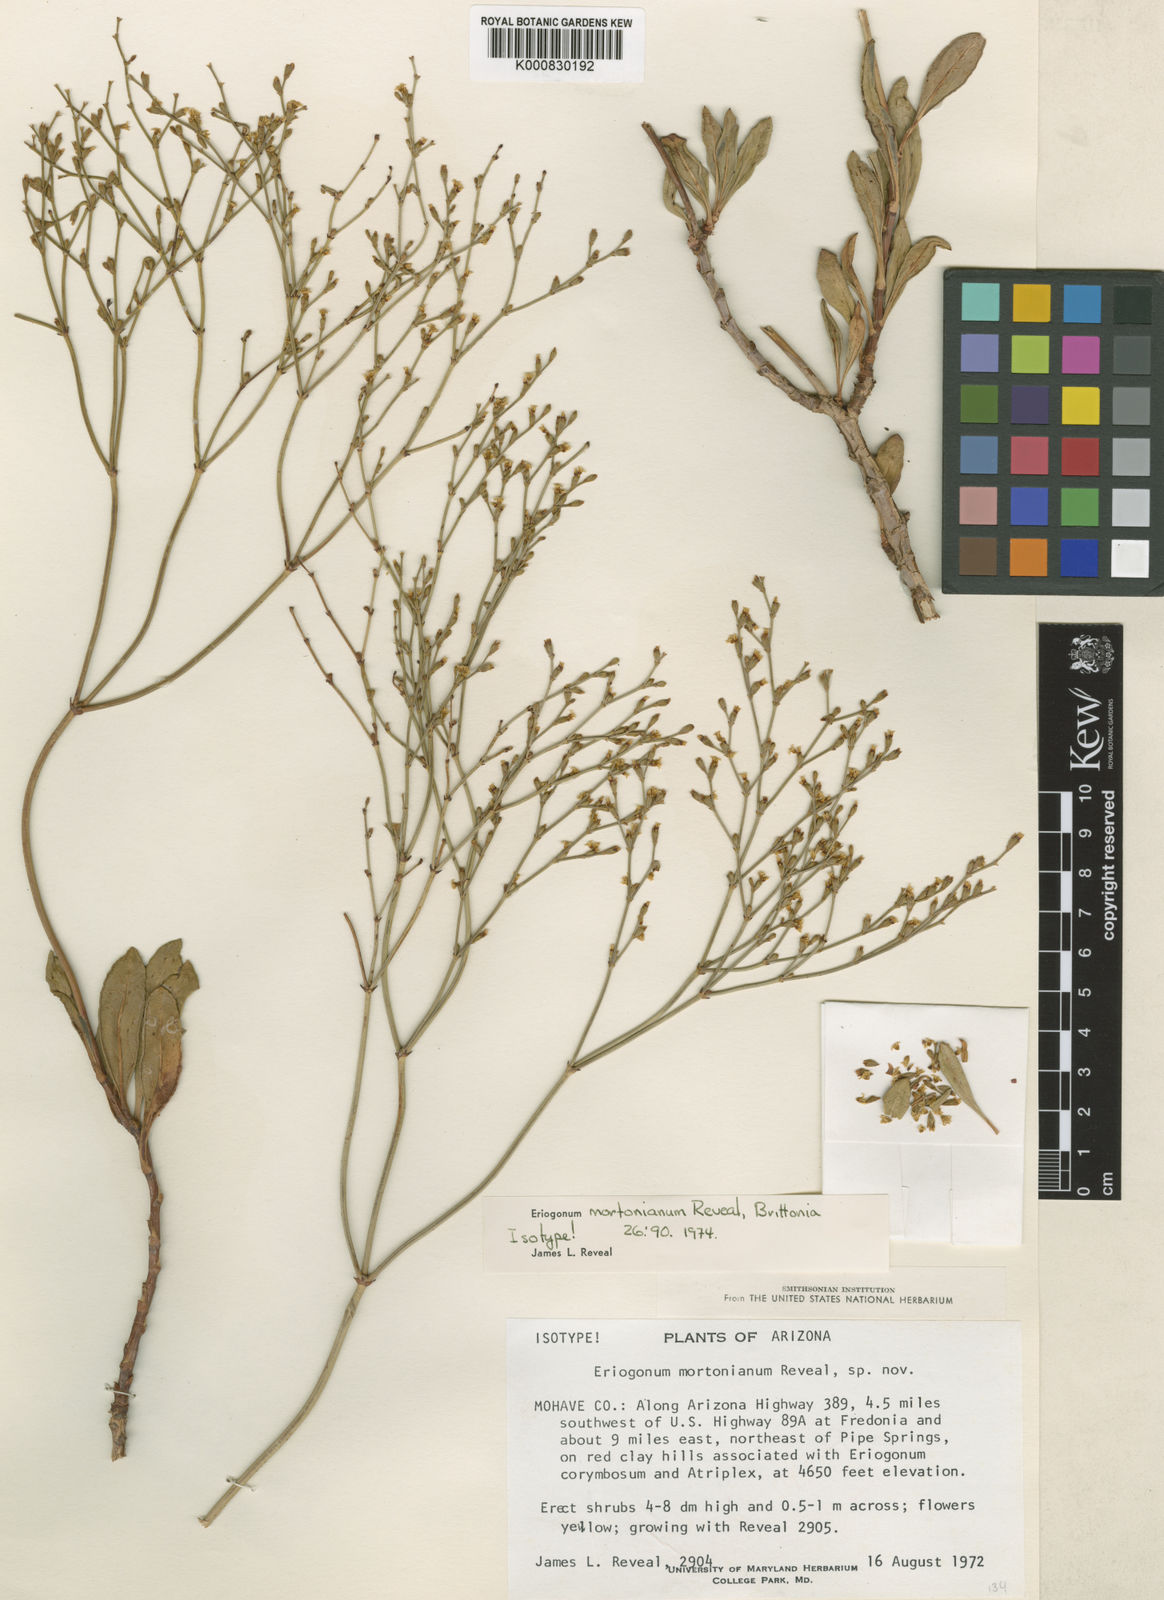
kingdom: Plantae
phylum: Tracheophyta
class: Magnoliopsida
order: Caryophyllales
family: Polygonaceae
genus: Eriogonum
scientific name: Eriogonum mortonianum
